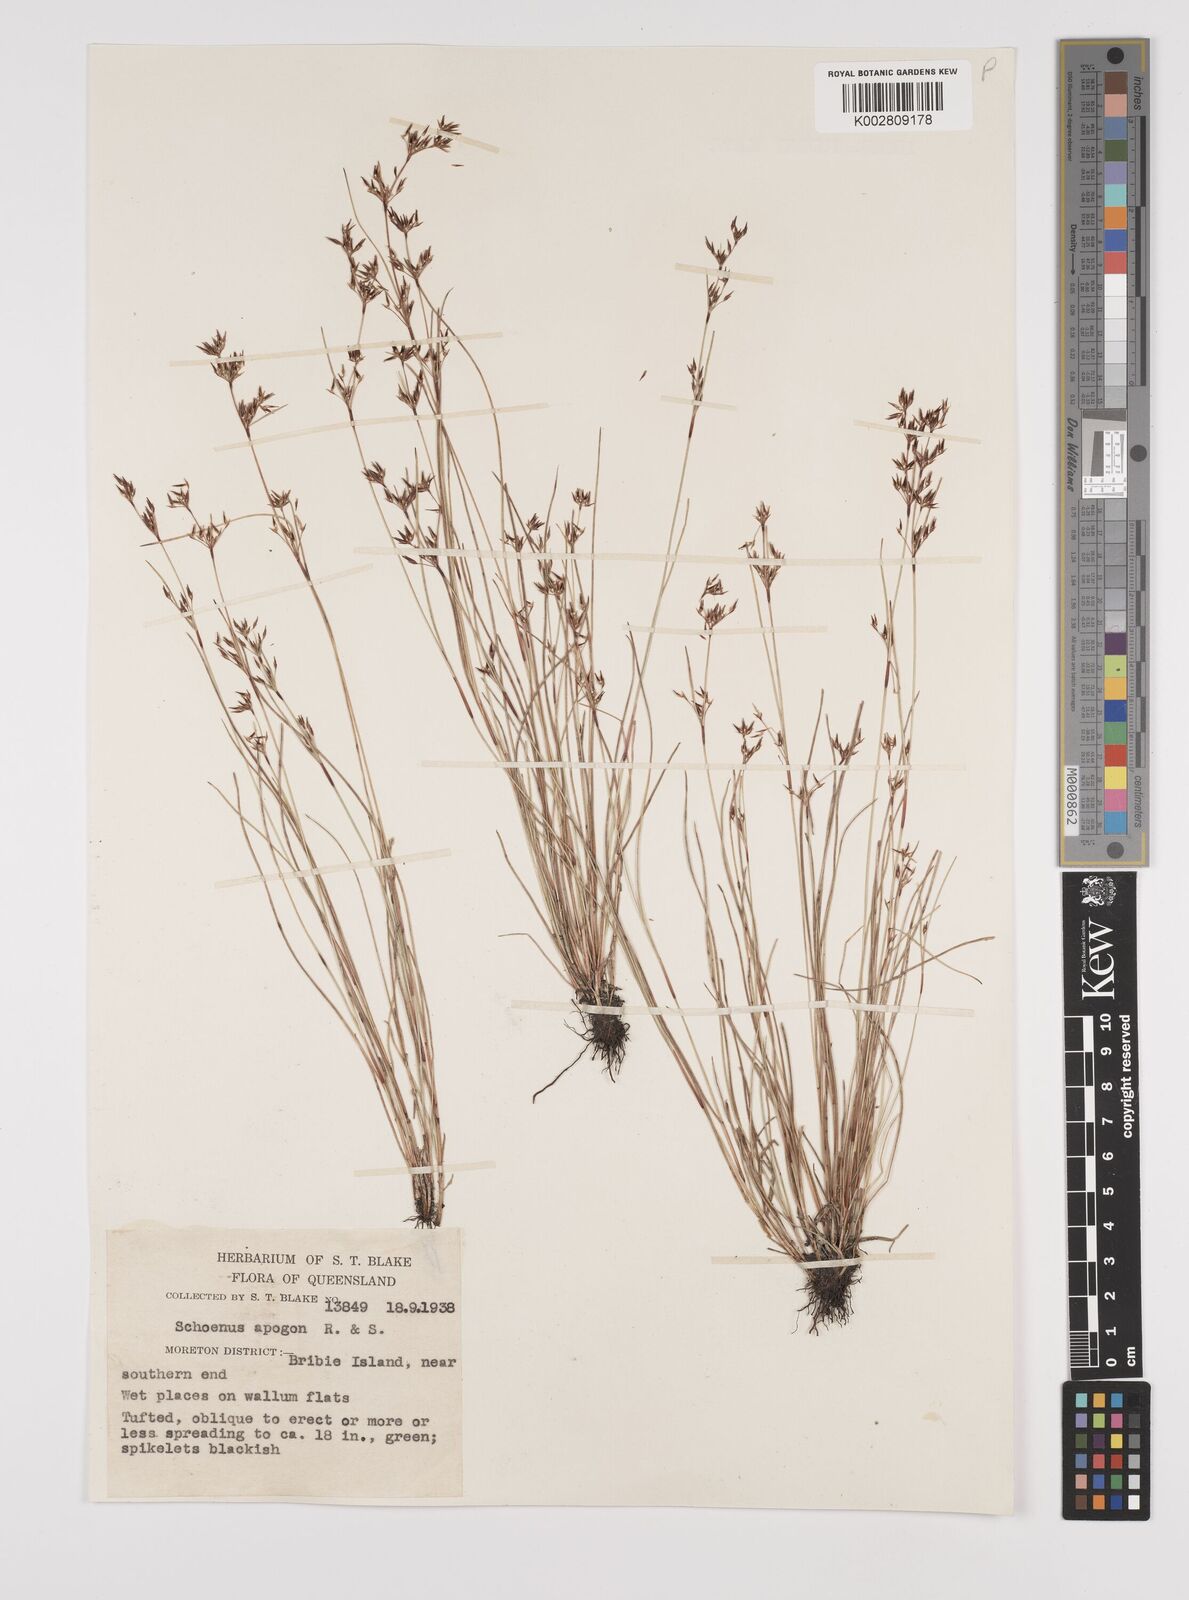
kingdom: Plantae
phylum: Tracheophyta
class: Liliopsida
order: Poales
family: Cyperaceae
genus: Schoenus
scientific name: Schoenus apogon
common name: Smooth bogrush
